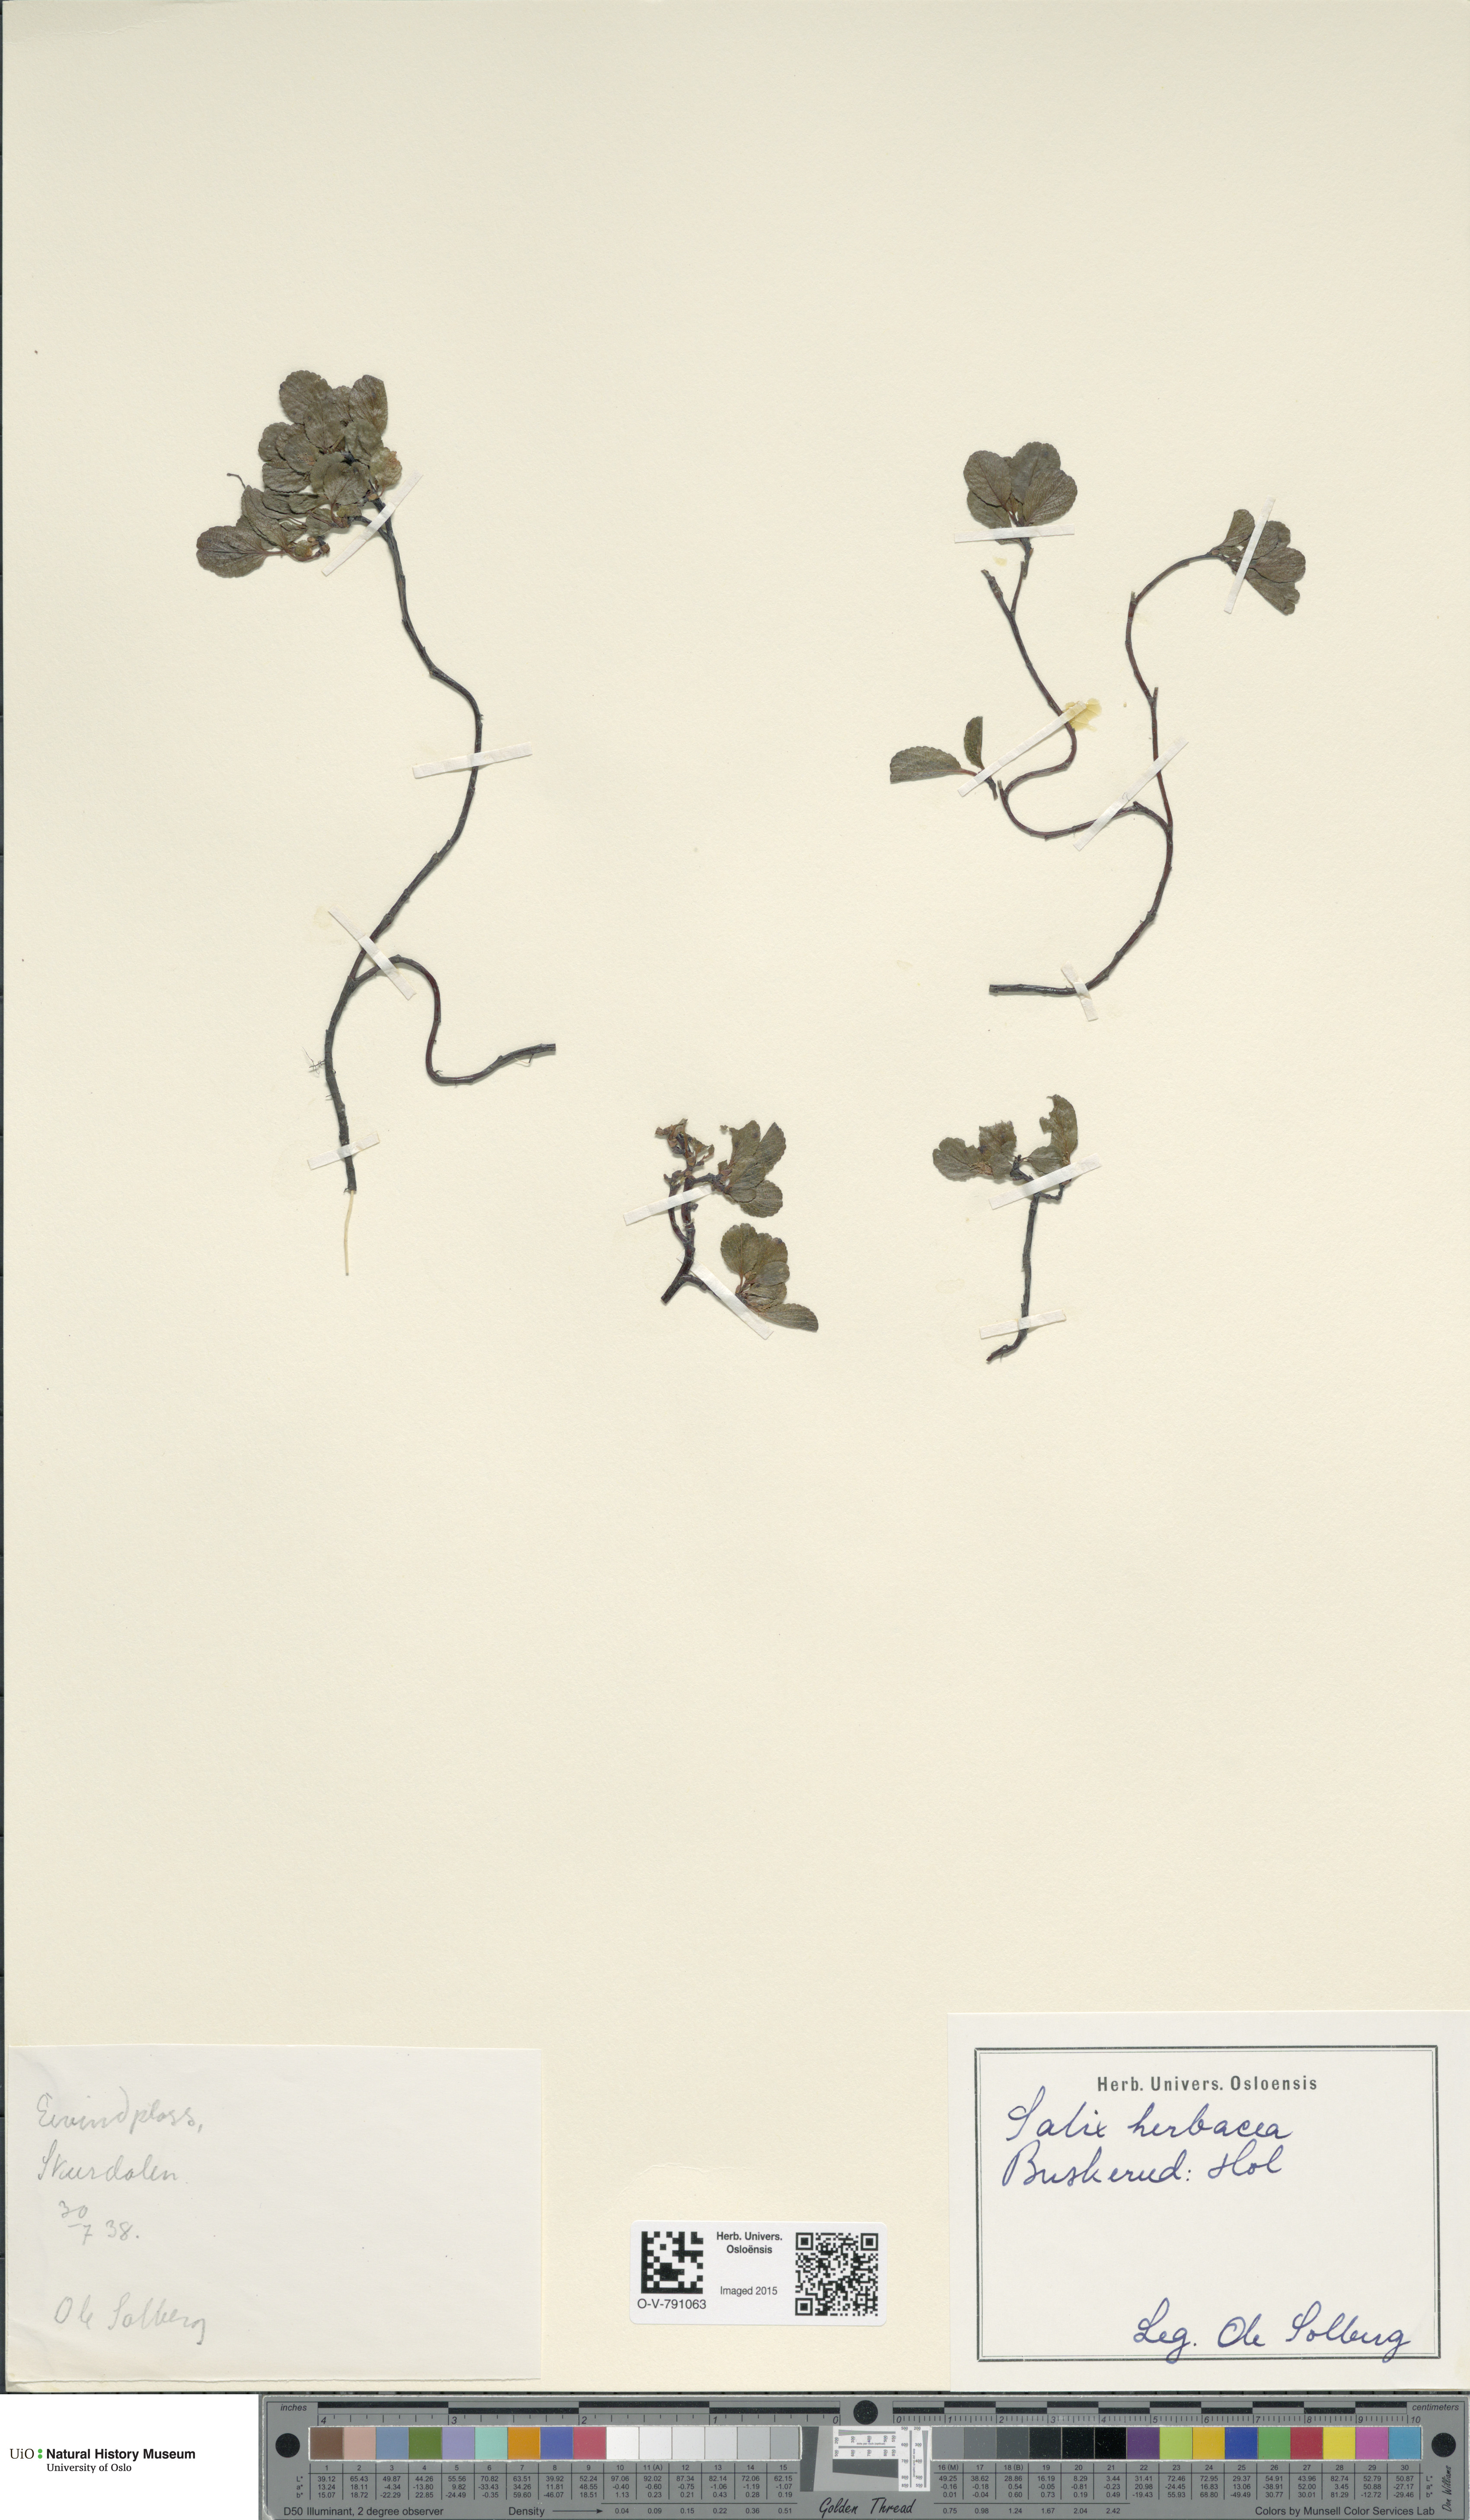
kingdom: Plantae
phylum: Tracheophyta
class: Magnoliopsida
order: Malpighiales
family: Salicaceae
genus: Salix
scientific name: Salix herbacea
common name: Dwarf willow
